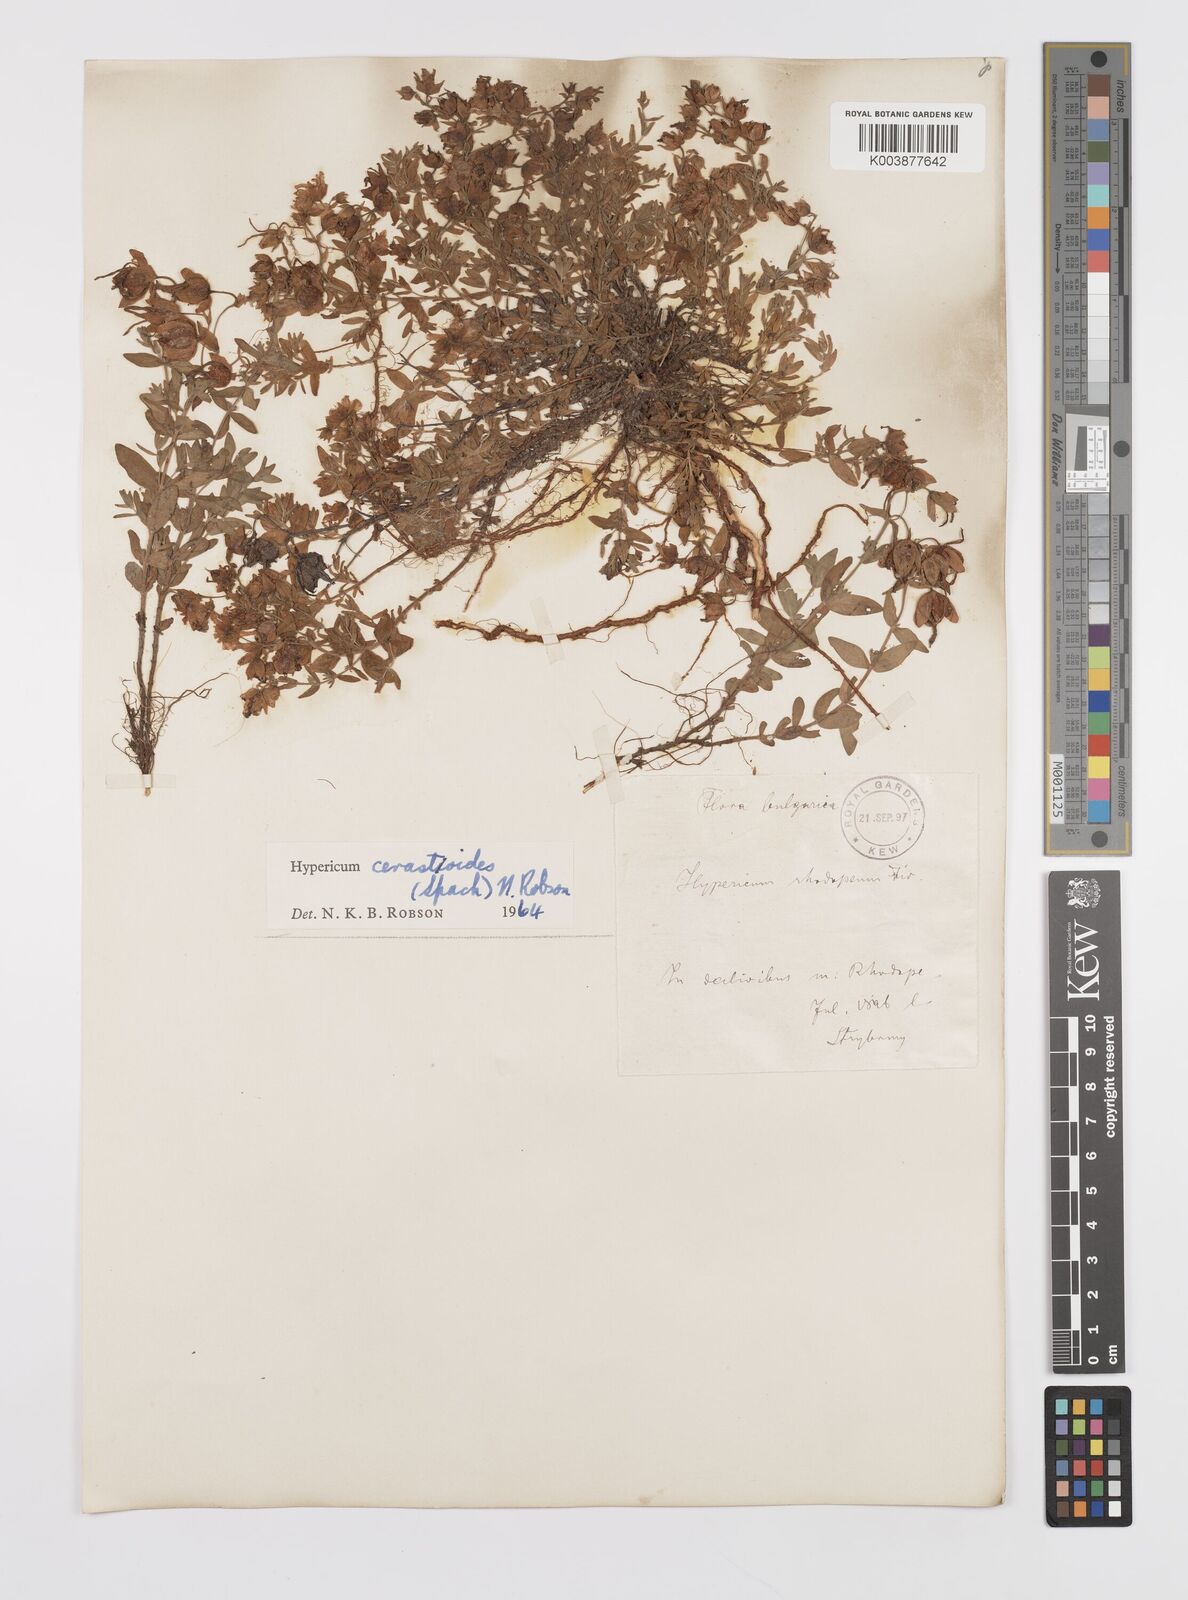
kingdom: Plantae
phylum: Tracheophyta
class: Magnoliopsida
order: Malpighiales
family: Hypericaceae
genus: Hypericum
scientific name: Hypericum cerastoides
